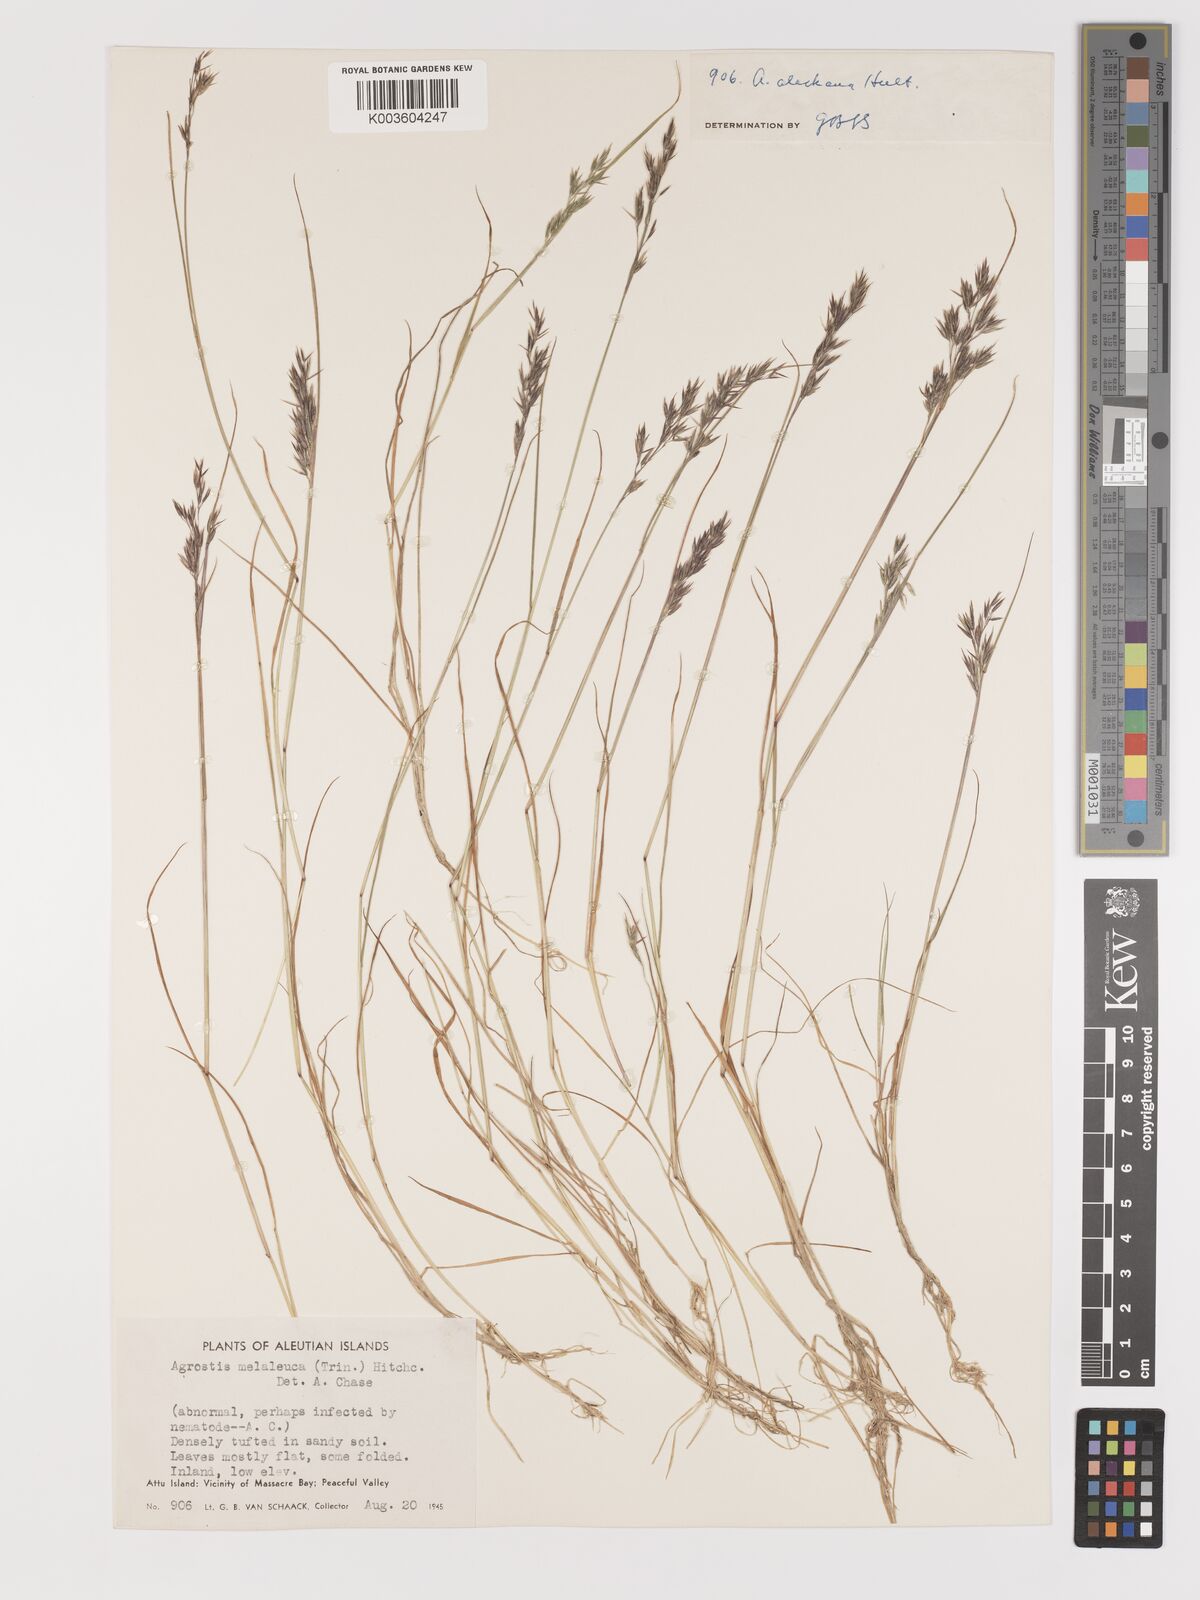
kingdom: Plantae
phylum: Tracheophyta
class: Liliopsida
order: Poales
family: Poaceae
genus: Agrostis
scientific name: Agrostis exarata
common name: Spike bent
